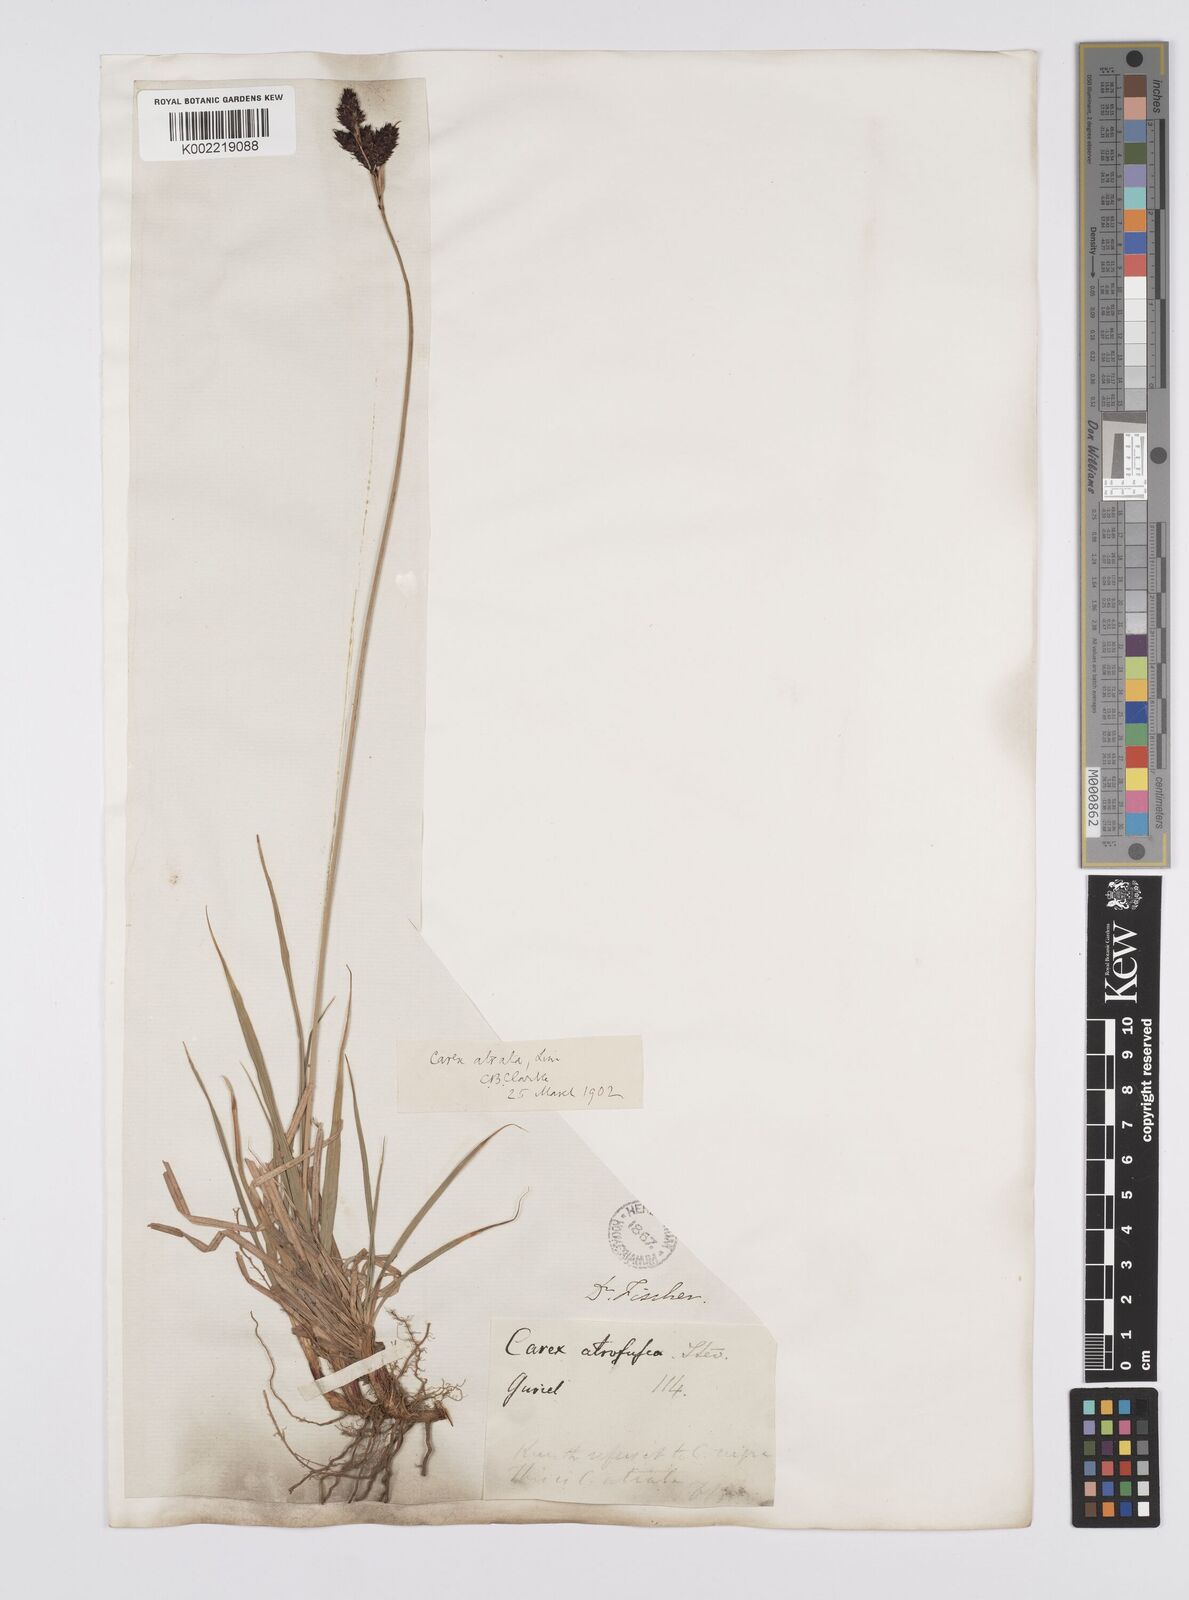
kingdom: Plantae
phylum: Tracheophyta
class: Liliopsida
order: Poales
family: Cyperaceae
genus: Carex
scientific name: Carex aterrima
